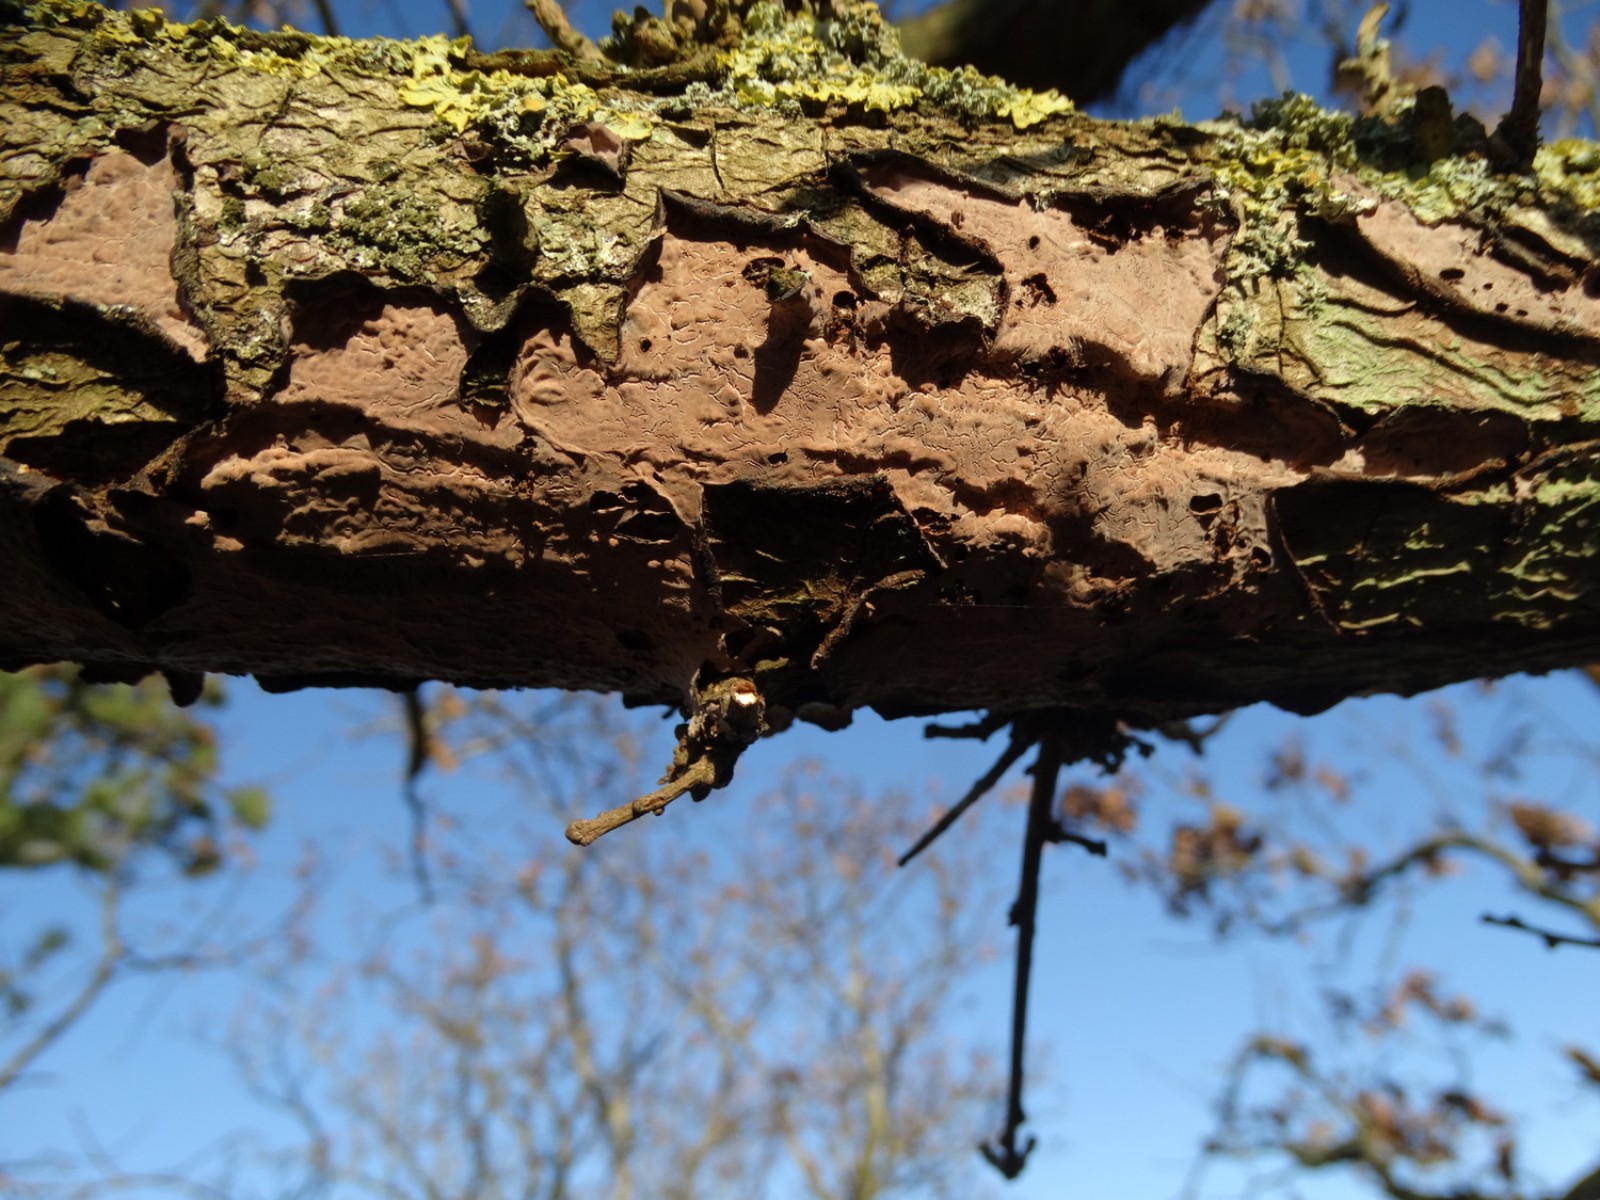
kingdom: Fungi
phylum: Basidiomycota
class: Agaricomycetes
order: Russulales
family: Peniophoraceae
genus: Peniophora
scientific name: Peniophora quercina
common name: ege-voksskind
